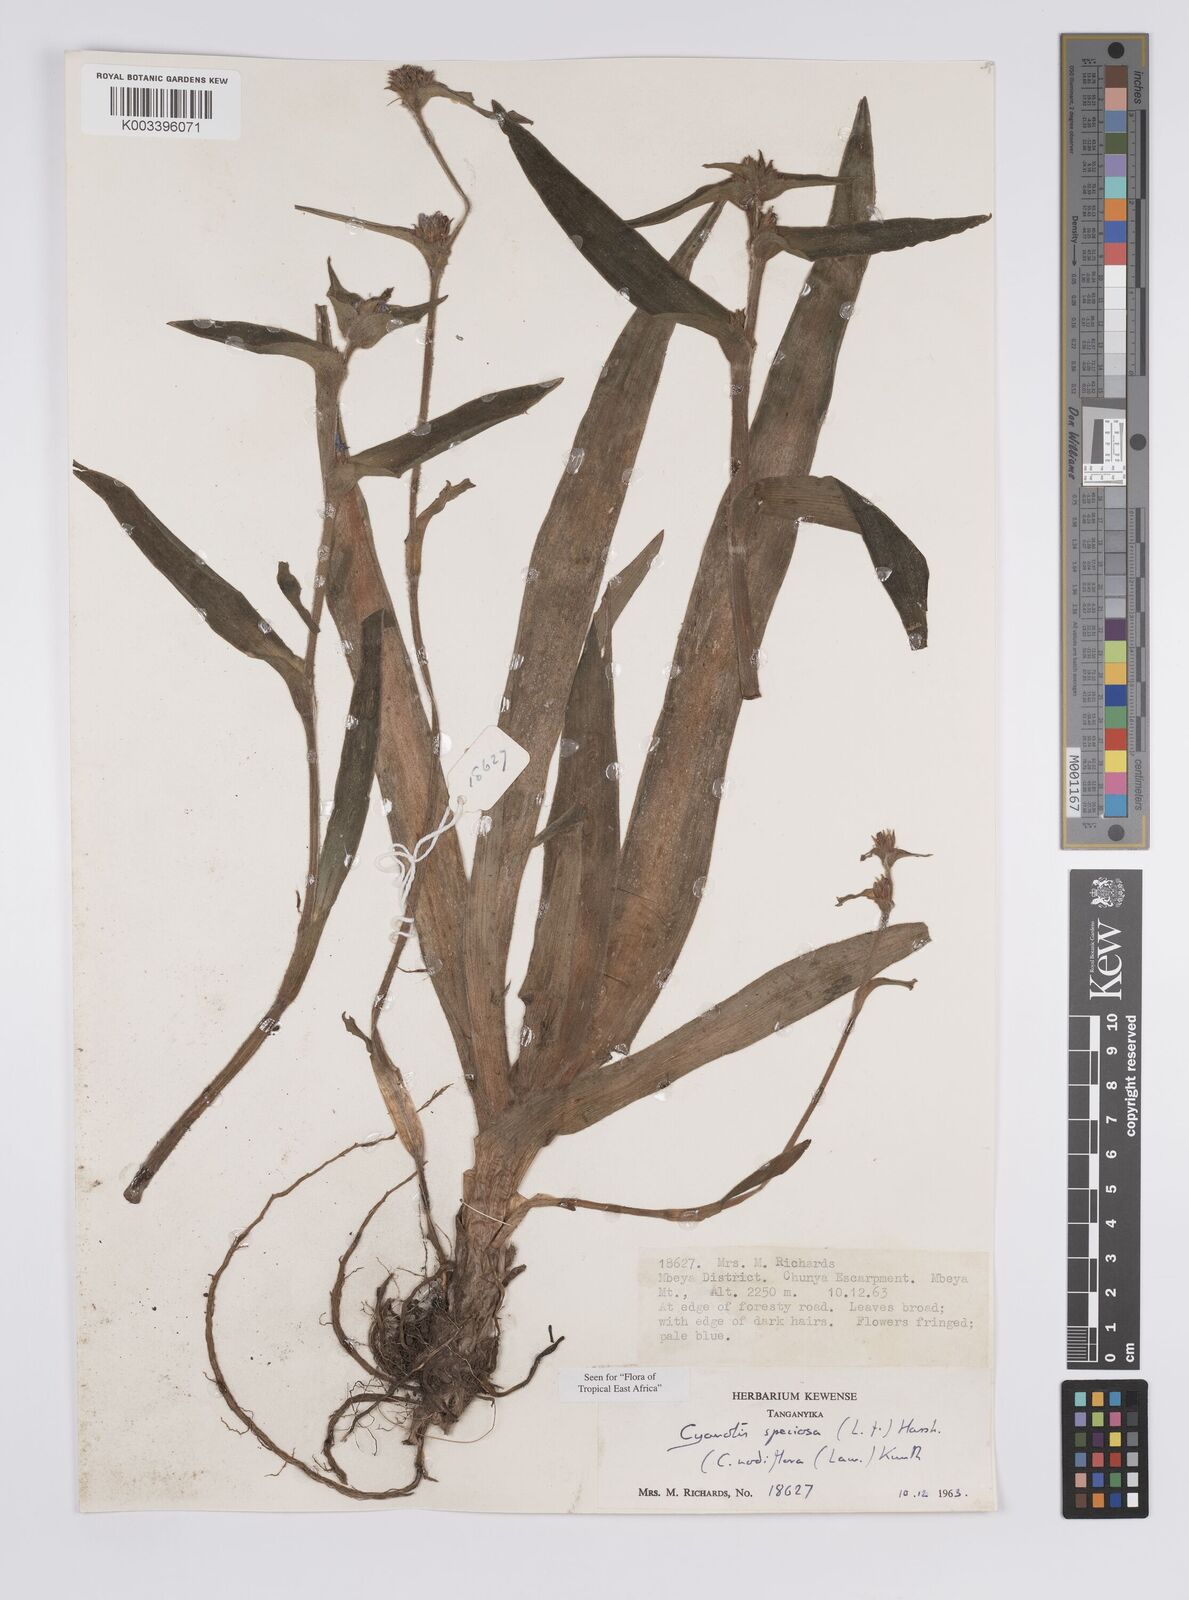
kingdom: Plantae
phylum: Tracheophyta
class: Liliopsida
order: Commelinales
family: Commelinaceae
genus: Cyanotis
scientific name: Cyanotis speciosa
